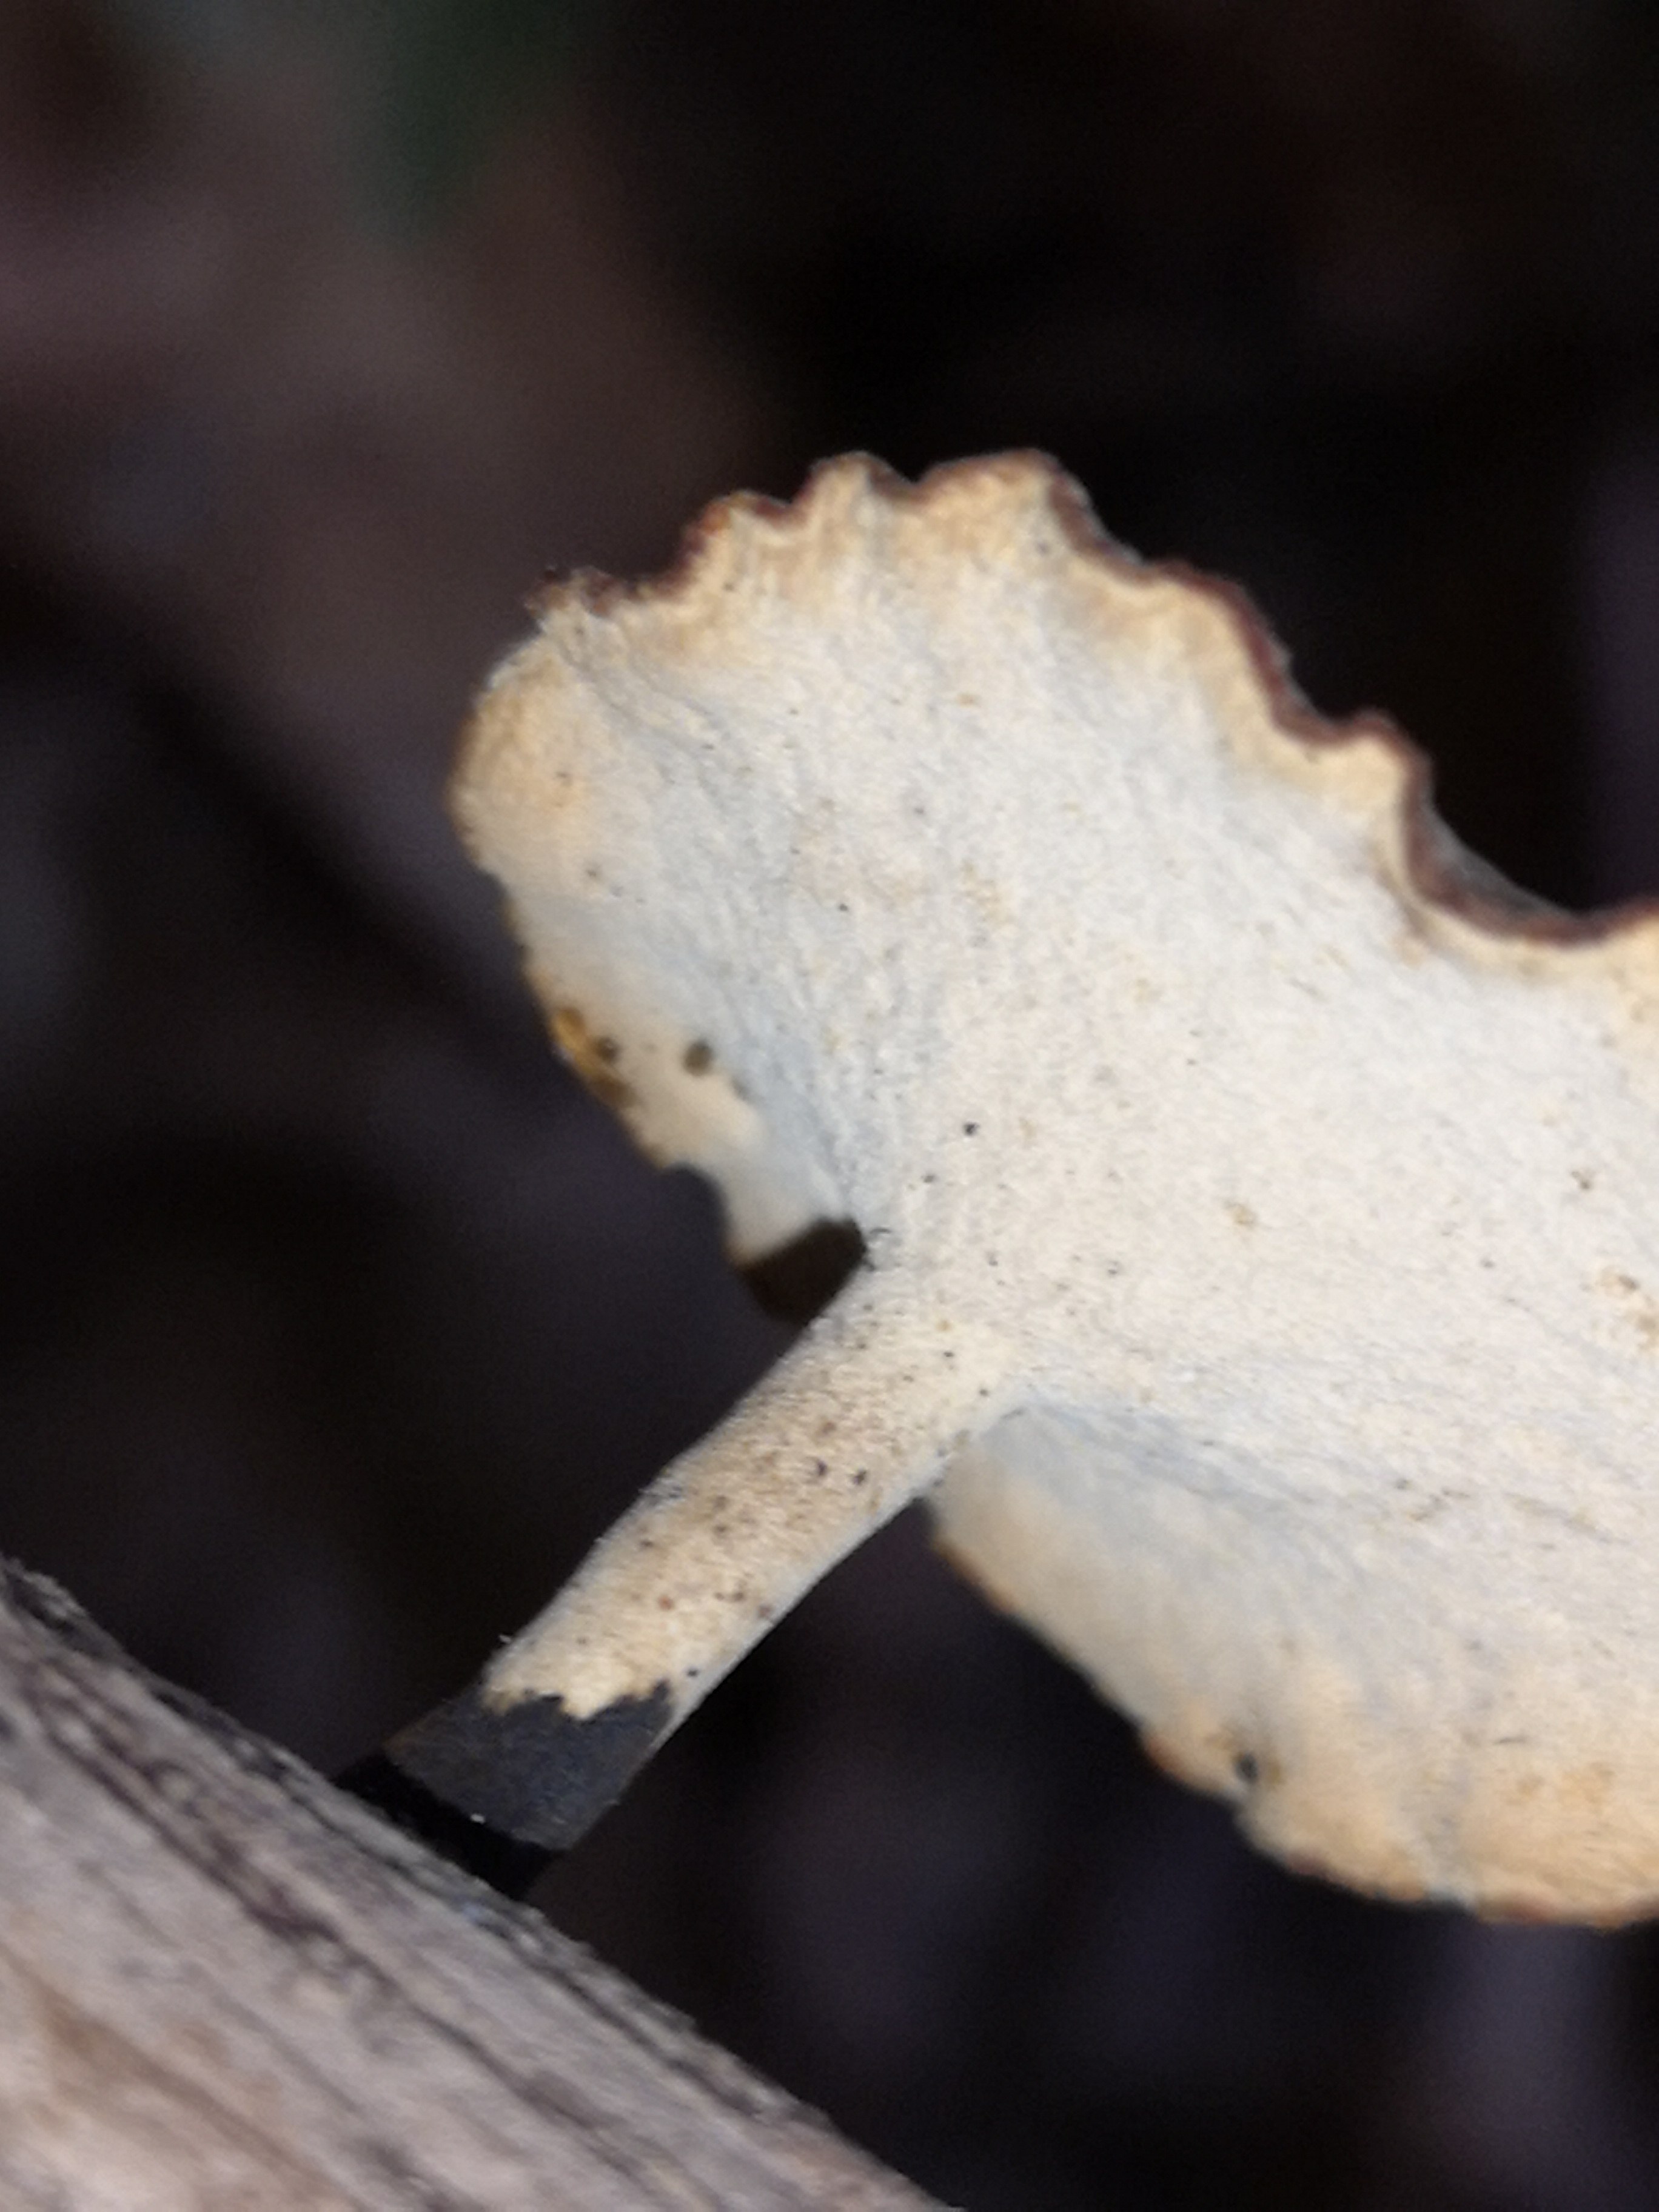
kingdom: Fungi
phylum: Basidiomycota
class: Agaricomycetes
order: Polyporales
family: Polyporaceae
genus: Cerioporus
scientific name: Cerioporus varius
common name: foranderlig stilkporesvamp
